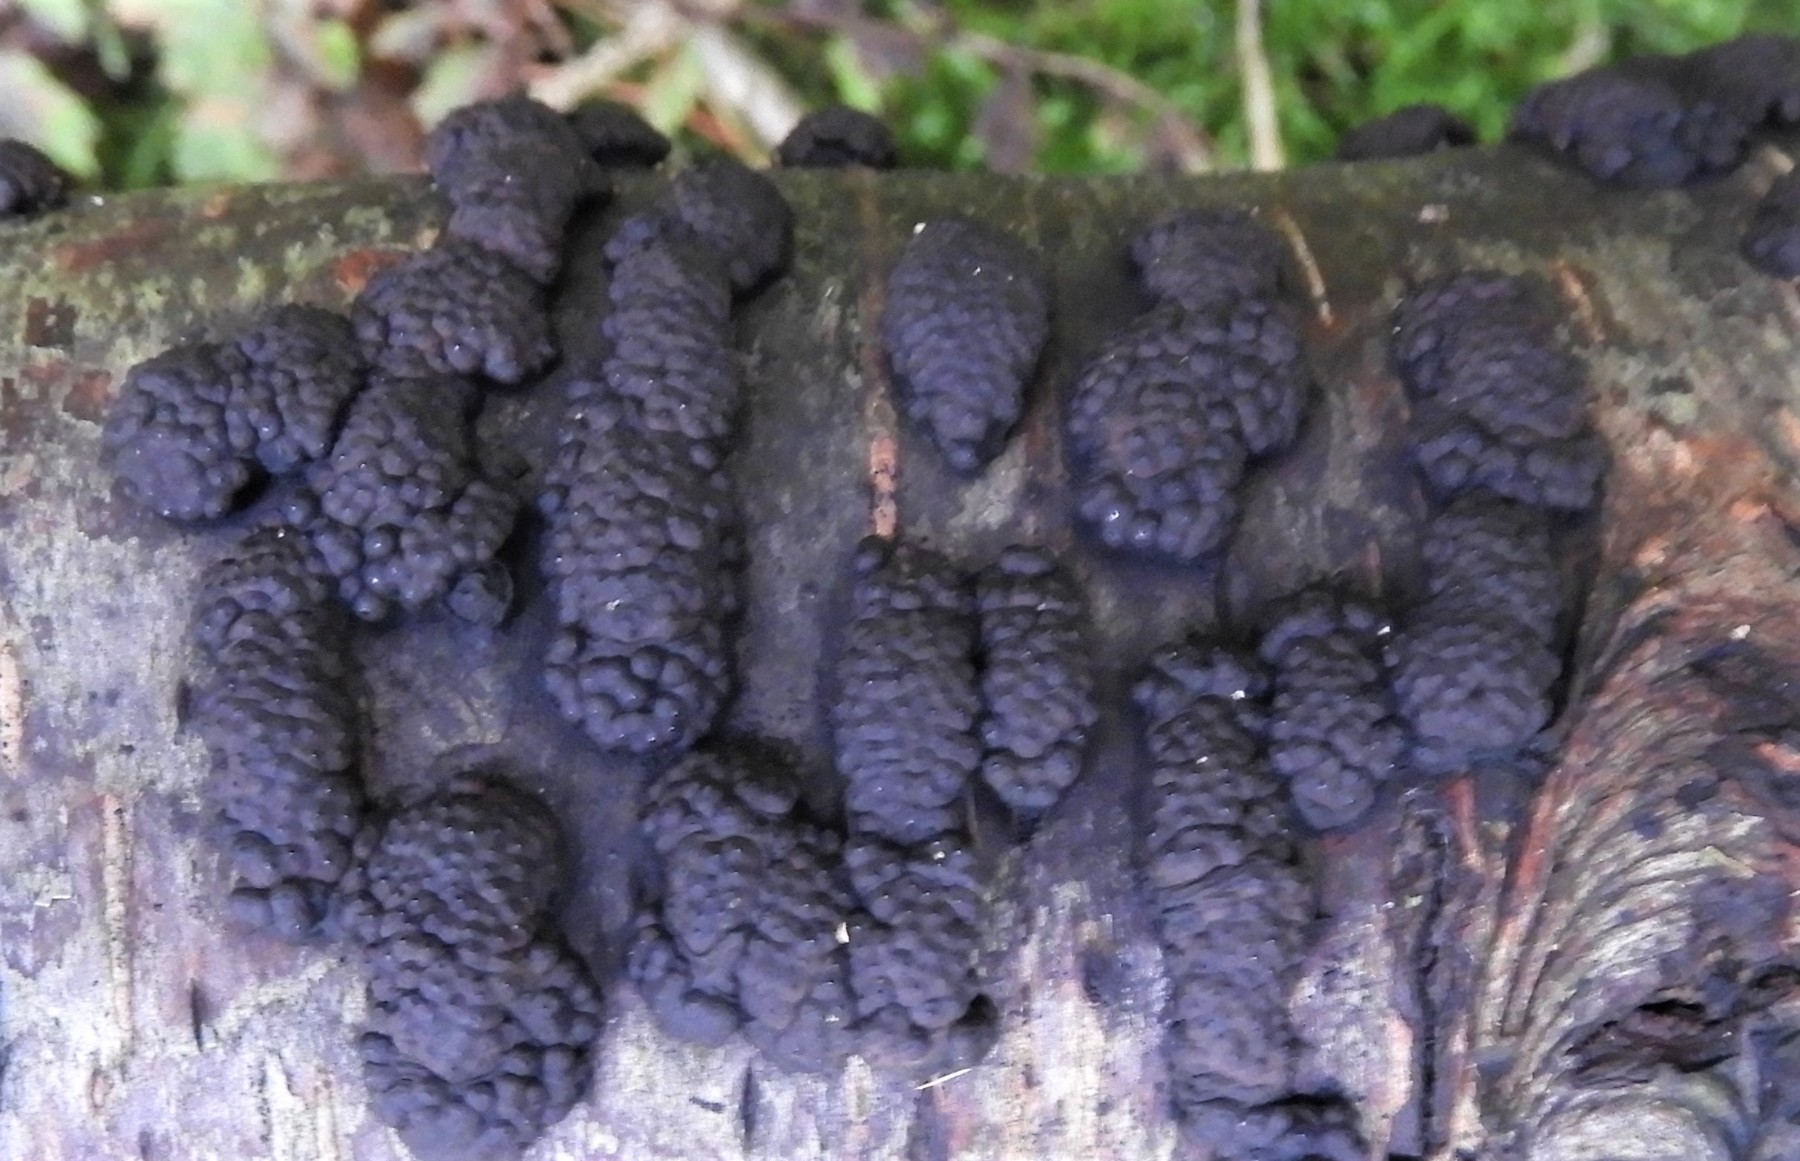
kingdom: Fungi
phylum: Ascomycota
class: Sordariomycetes
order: Xylariales
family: Hypoxylaceae
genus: Jackrogersella
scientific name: Jackrogersella multiformis
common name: foranderlig kulbær
